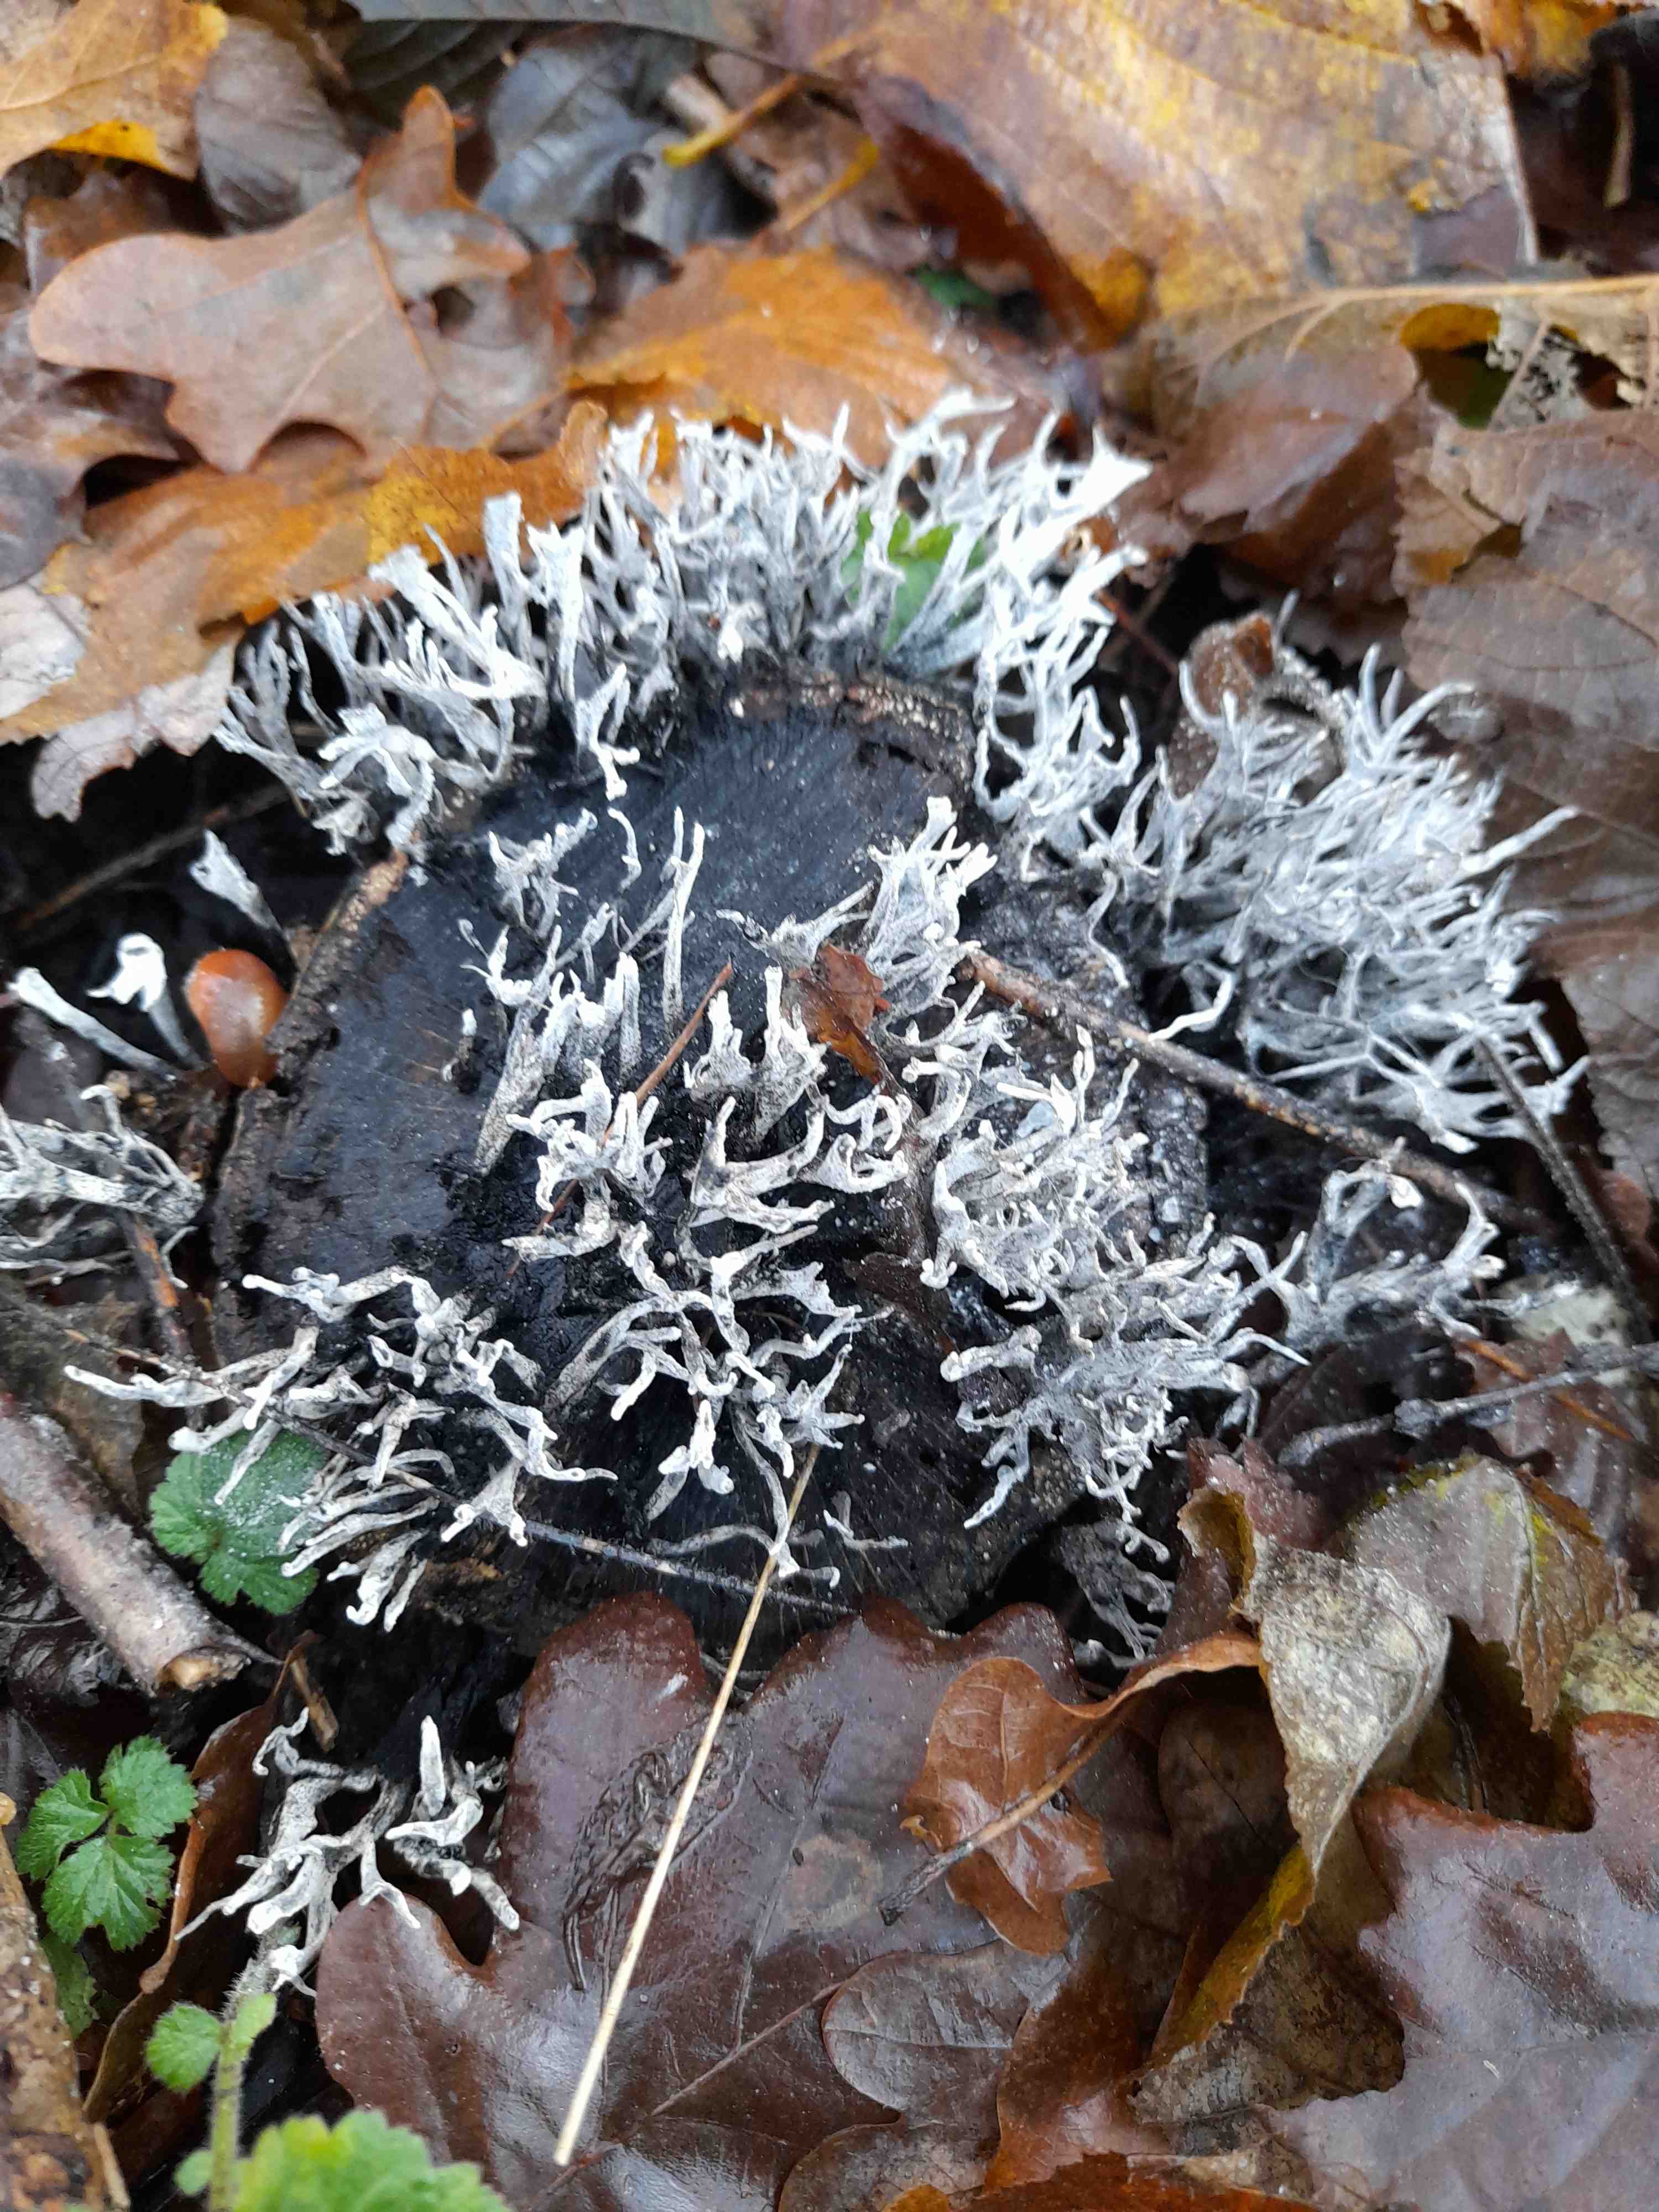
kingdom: Fungi
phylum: Ascomycota
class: Sordariomycetes
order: Xylariales
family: Xylariaceae
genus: Xylaria
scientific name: Xylaria hypoxylon
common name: grenet stødsvamp
